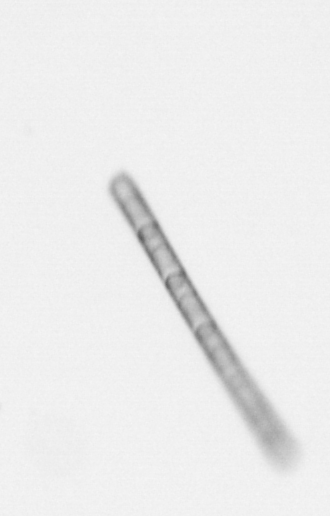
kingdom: Chromista
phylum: Ochrophyta
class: Bacillariophyceae
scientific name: Bacillariophyceae
